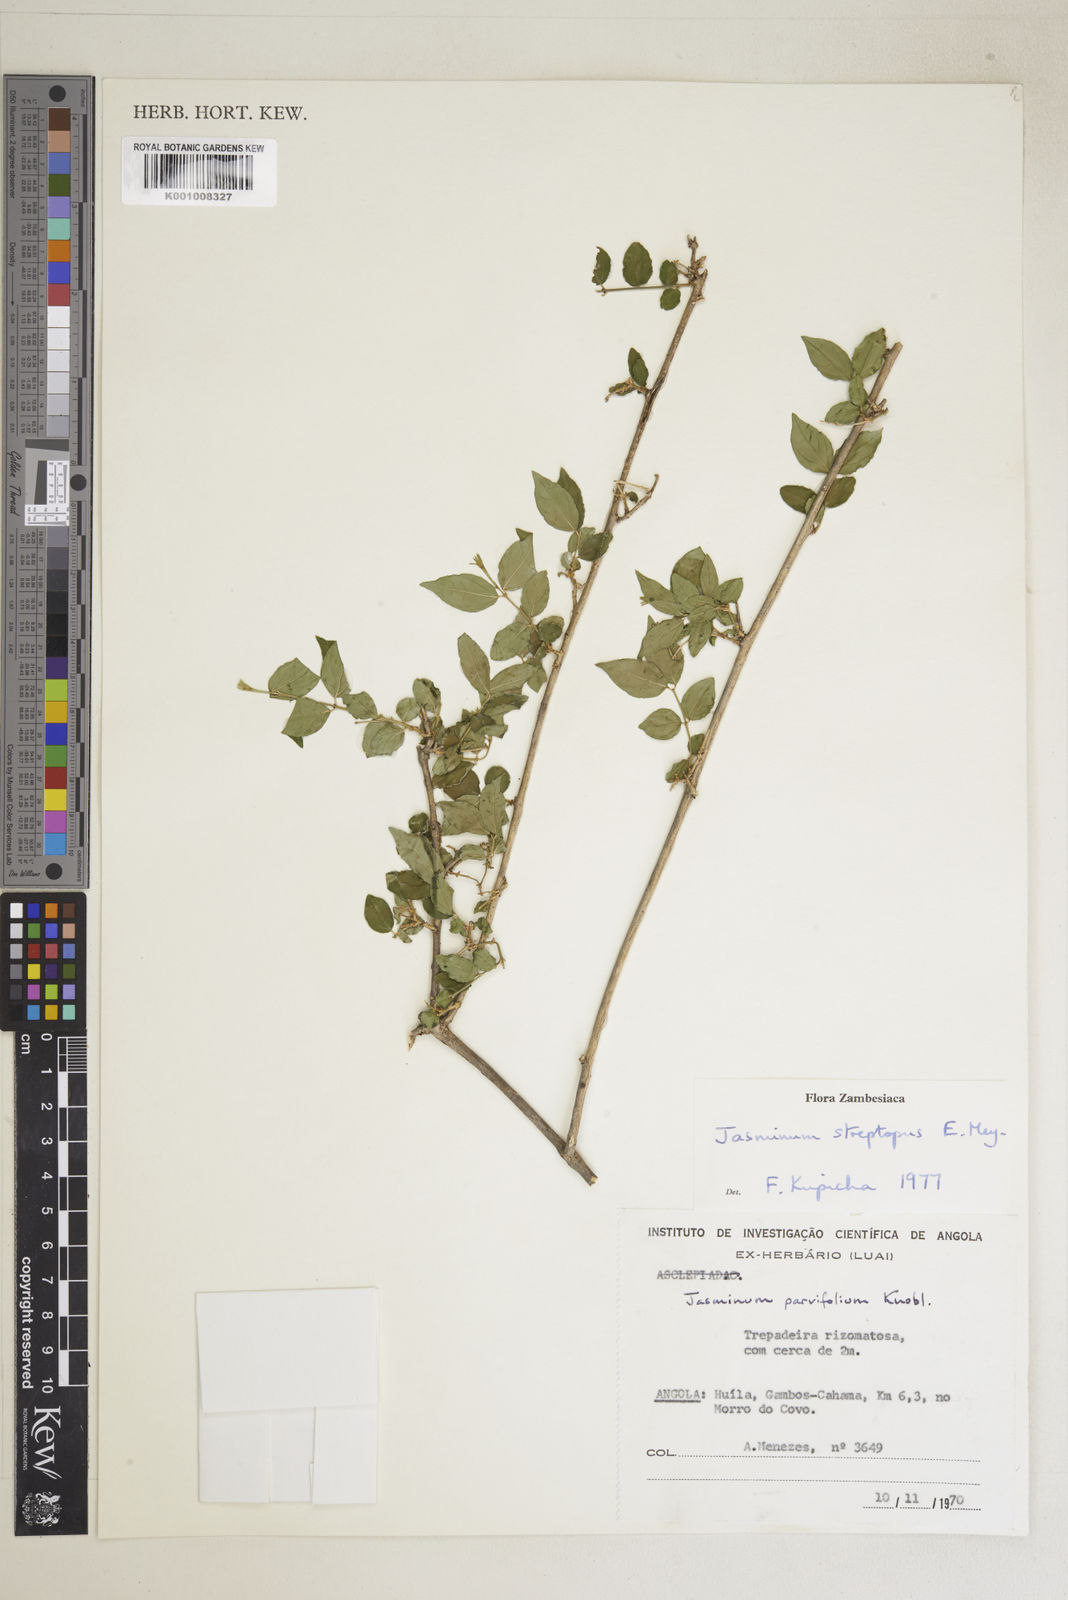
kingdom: Plantae
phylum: Tracheophyta
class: Magnoliopsida
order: Lamiales
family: Oleaceae
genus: Jasminum
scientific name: Jasminum streptopus
